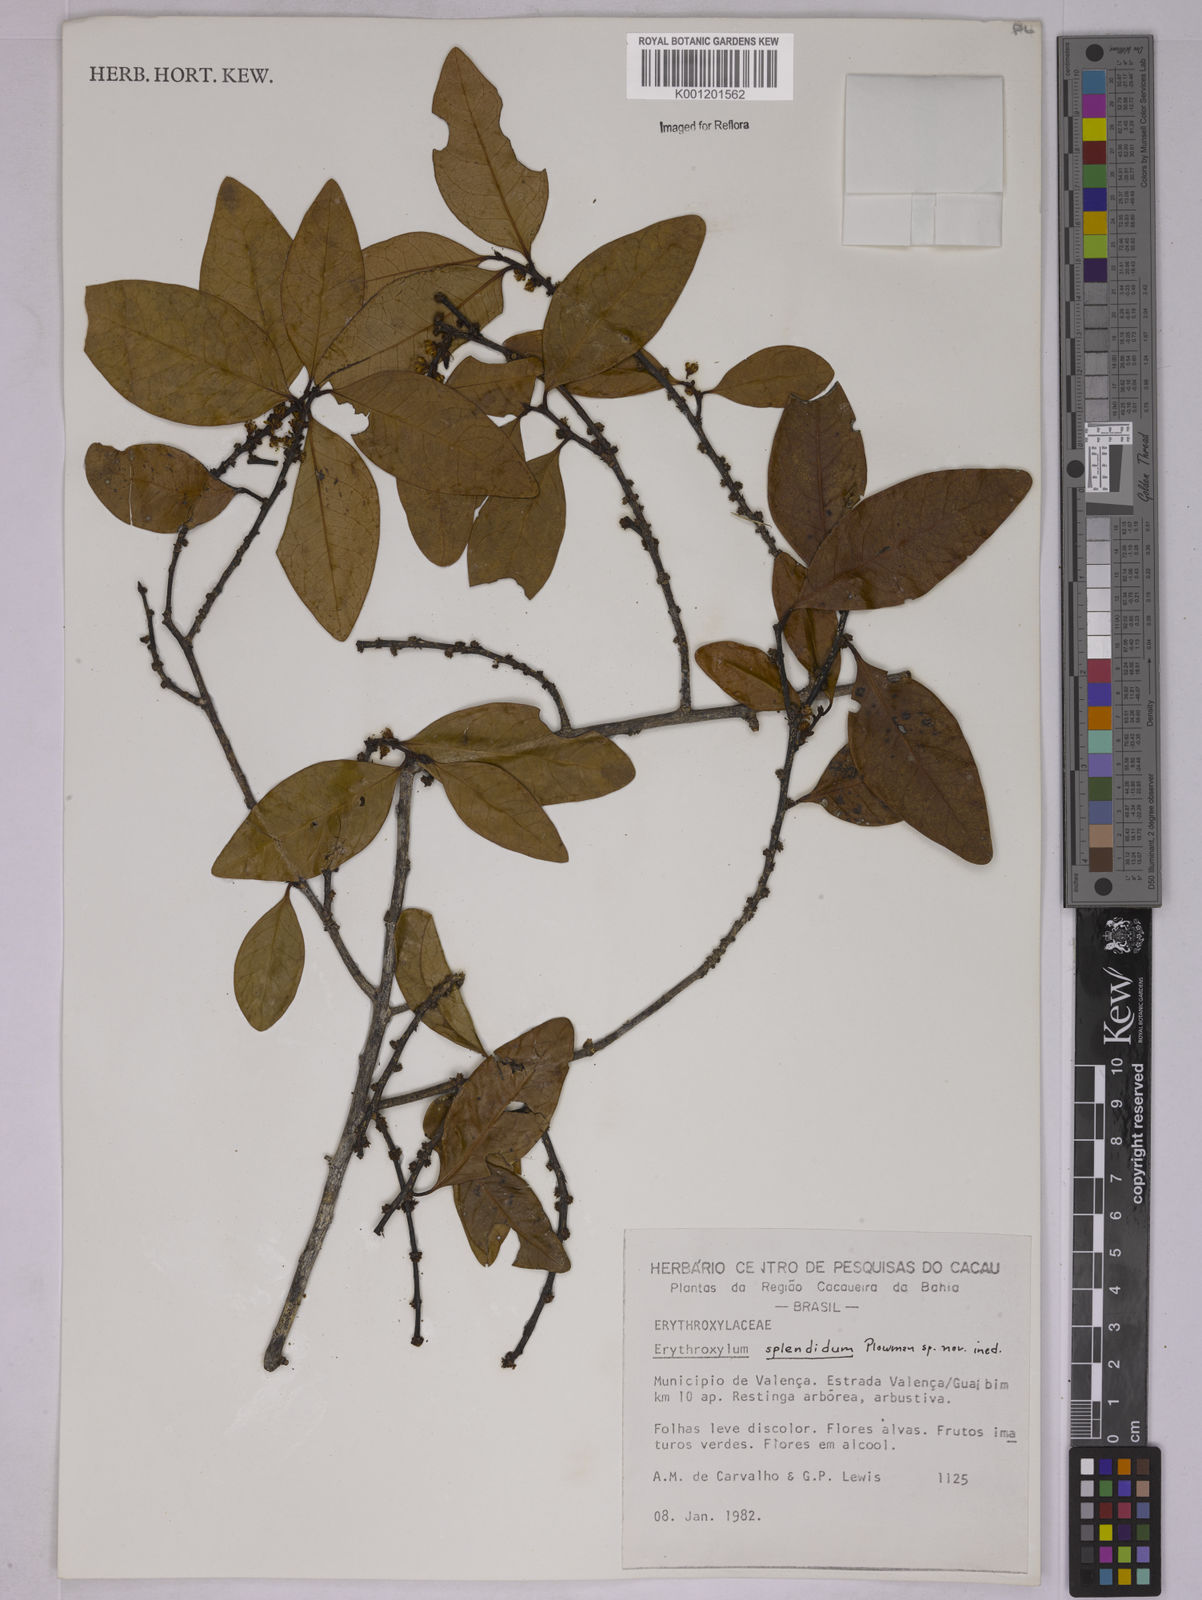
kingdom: Plantae
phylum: Tracheophyta
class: Magnoliopsida
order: Malpighiales
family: Erythroxylaceae
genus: Erythroxylum
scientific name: Erythroxylum splendidum
